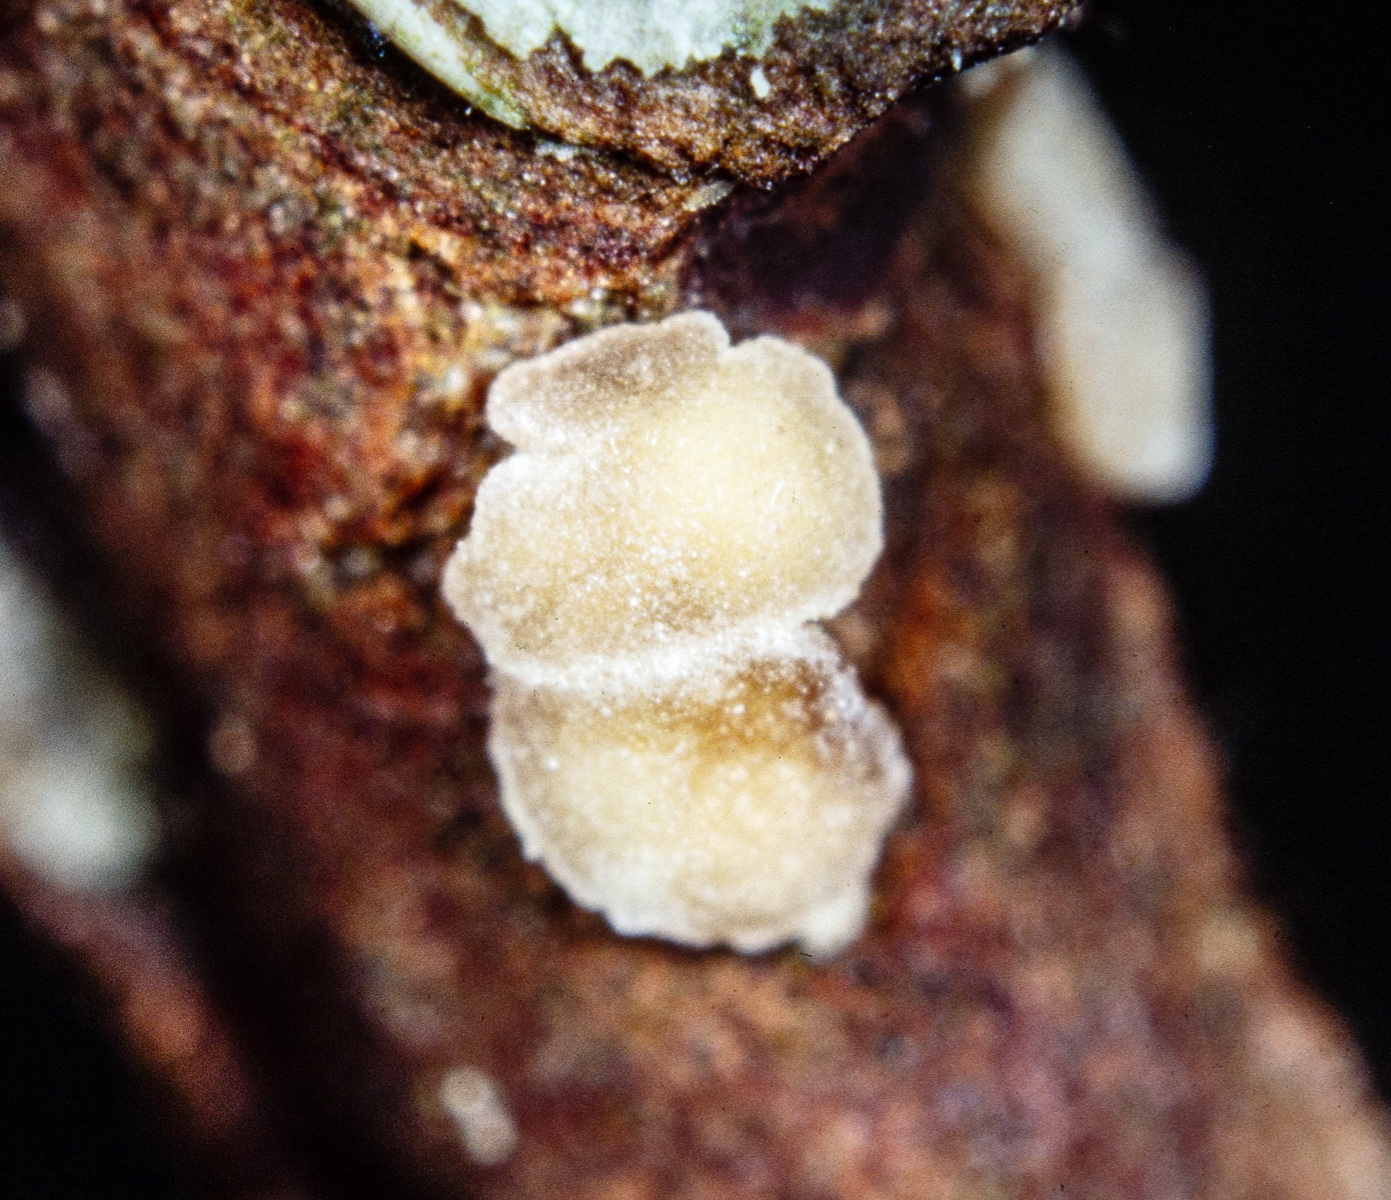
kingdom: Fungi
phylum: Ascomycota
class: Leotiomycetes
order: Helotiales
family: Dermateaceae
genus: Pezicula
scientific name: Pezicula myrtillina
